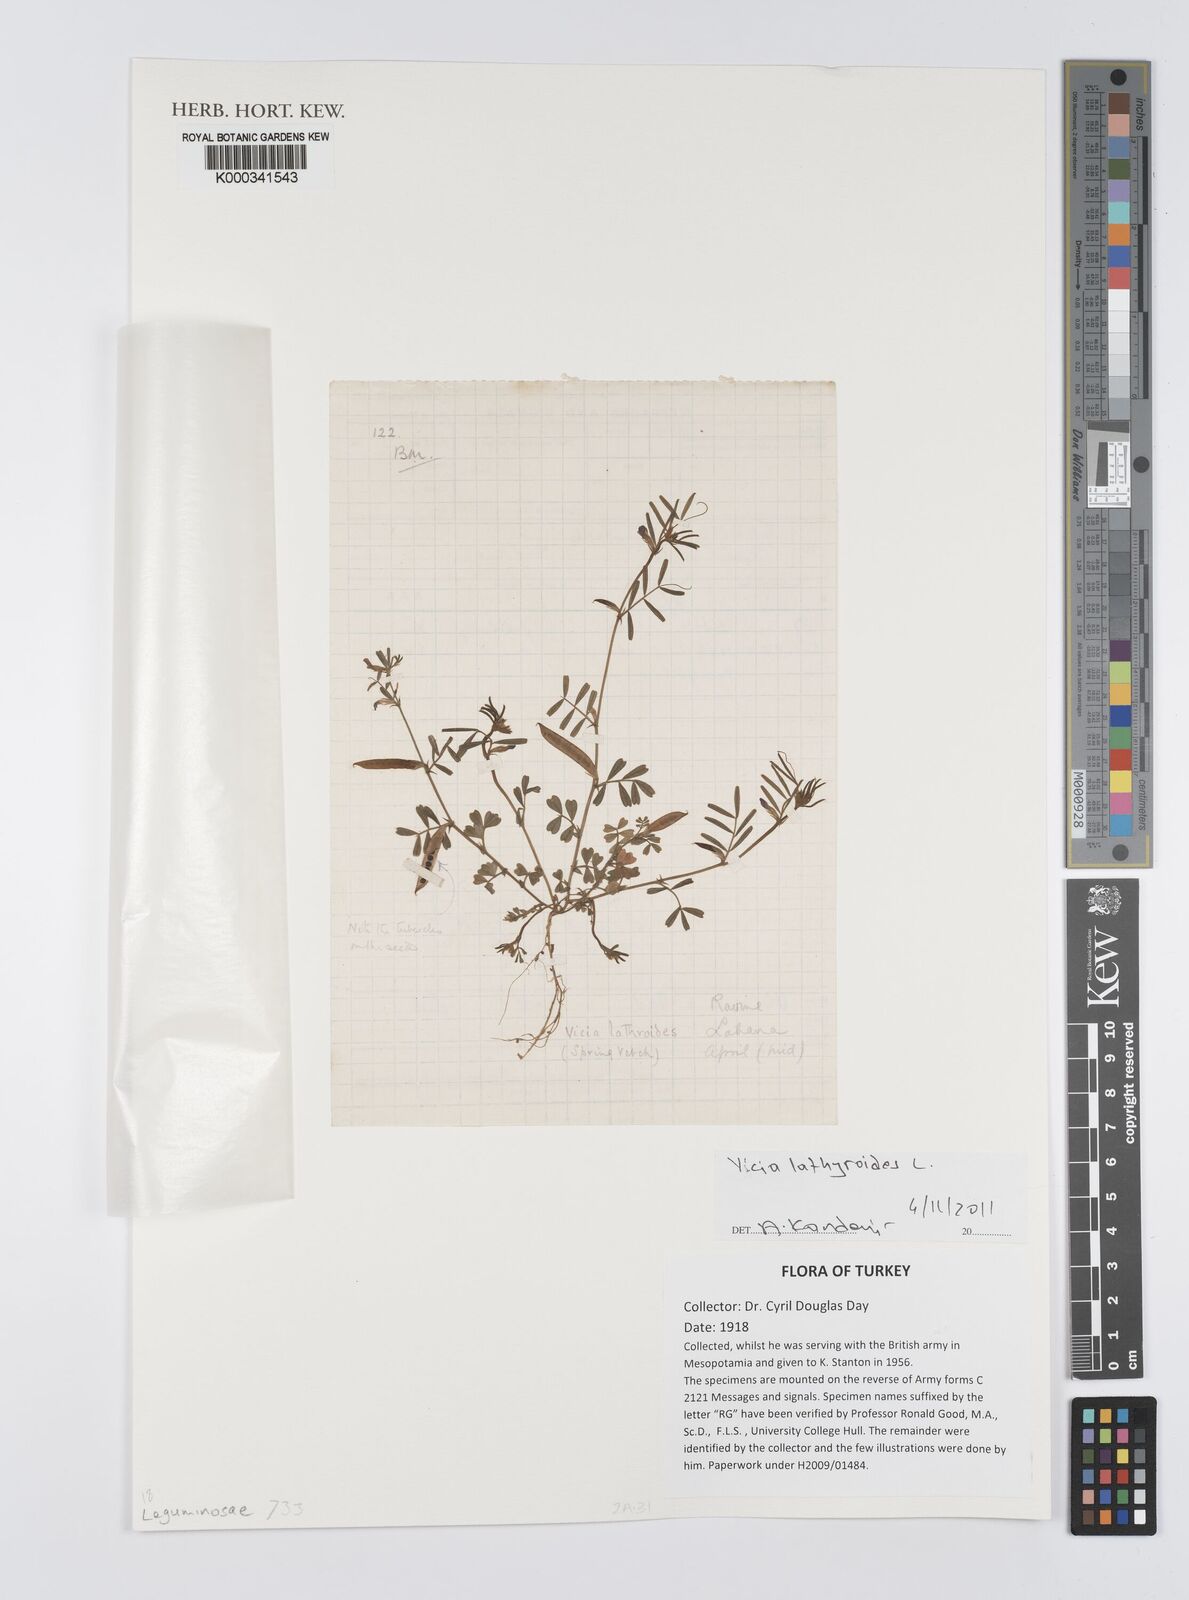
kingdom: Plantae
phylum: Tracheophyta
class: Magnoliopsida
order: Fabales
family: Fabaceae
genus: Vicia
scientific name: Vicia lathyroides
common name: Spring vetch
